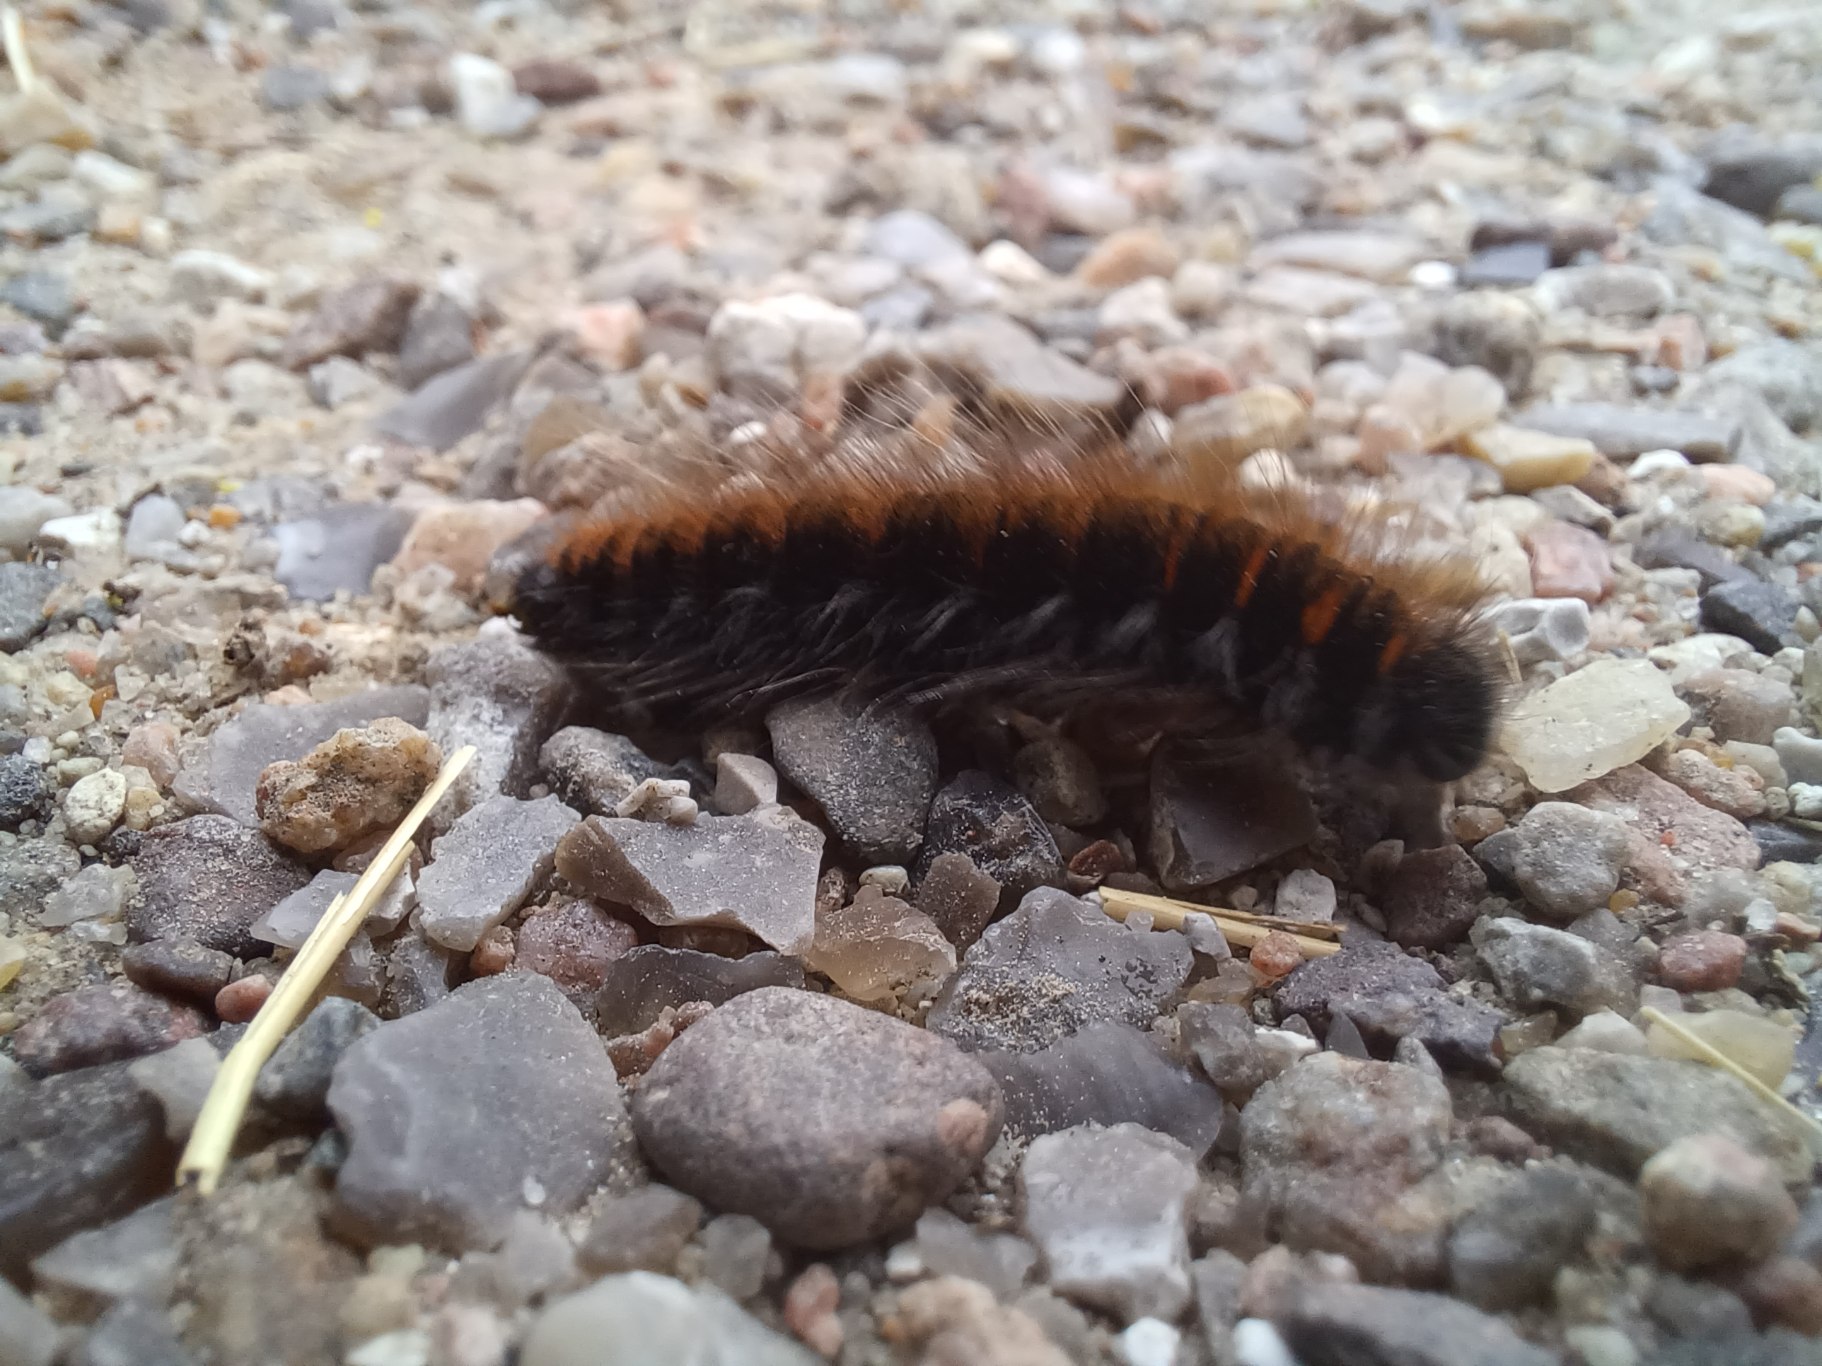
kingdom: Animalia
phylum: Arthropoda
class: Insecta
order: Lepidoptera
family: Lasiocampidae
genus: Macrothylacia
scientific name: Macrothylacia rubi
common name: Brombærspinder
